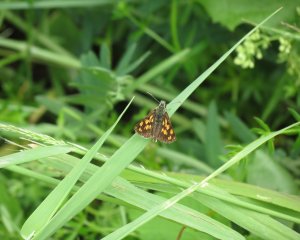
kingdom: Animalia
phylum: Arthropoda
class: Insecta
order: Lepidoptera
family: Hesperiidae
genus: Carterocephalus
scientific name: Carterocephalus palaemon
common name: Chequered Skipper
